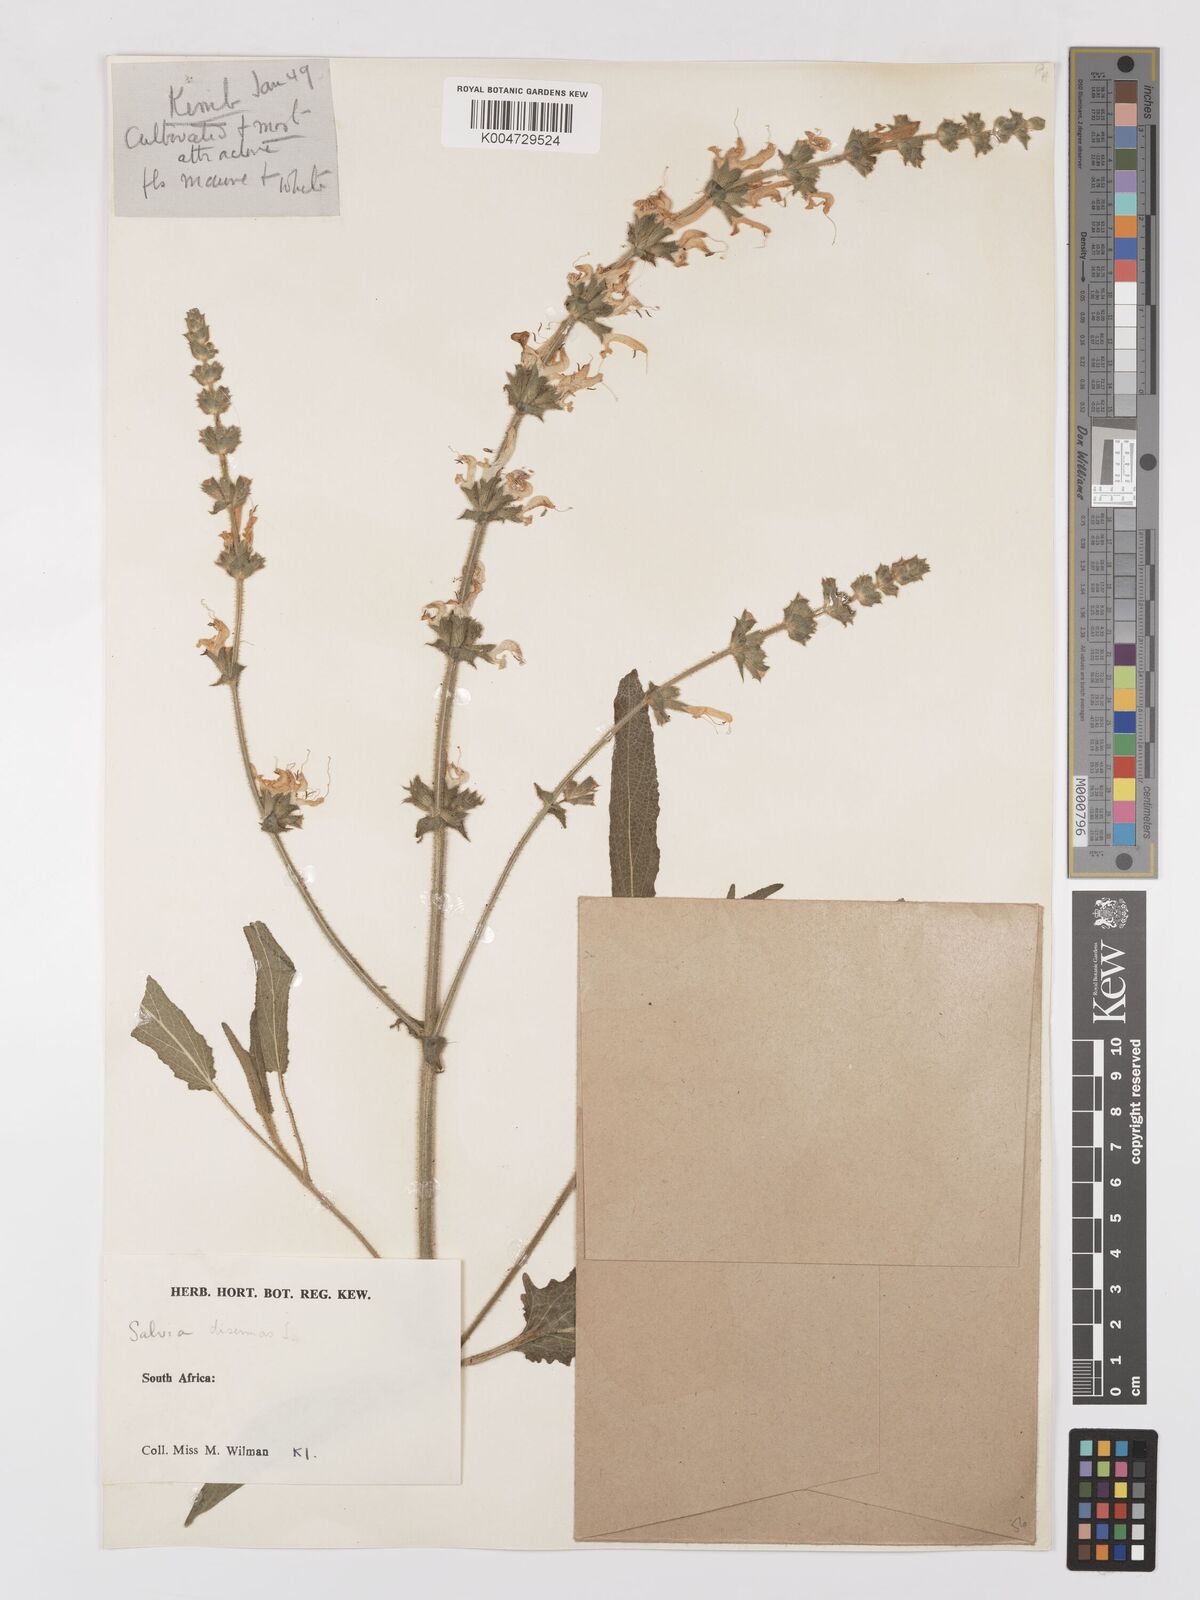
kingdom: Plantae
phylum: Tracheophyta
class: Magnoliopsida
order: Lamiales
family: Lamiaceae
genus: Salvia
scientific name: Salvia
